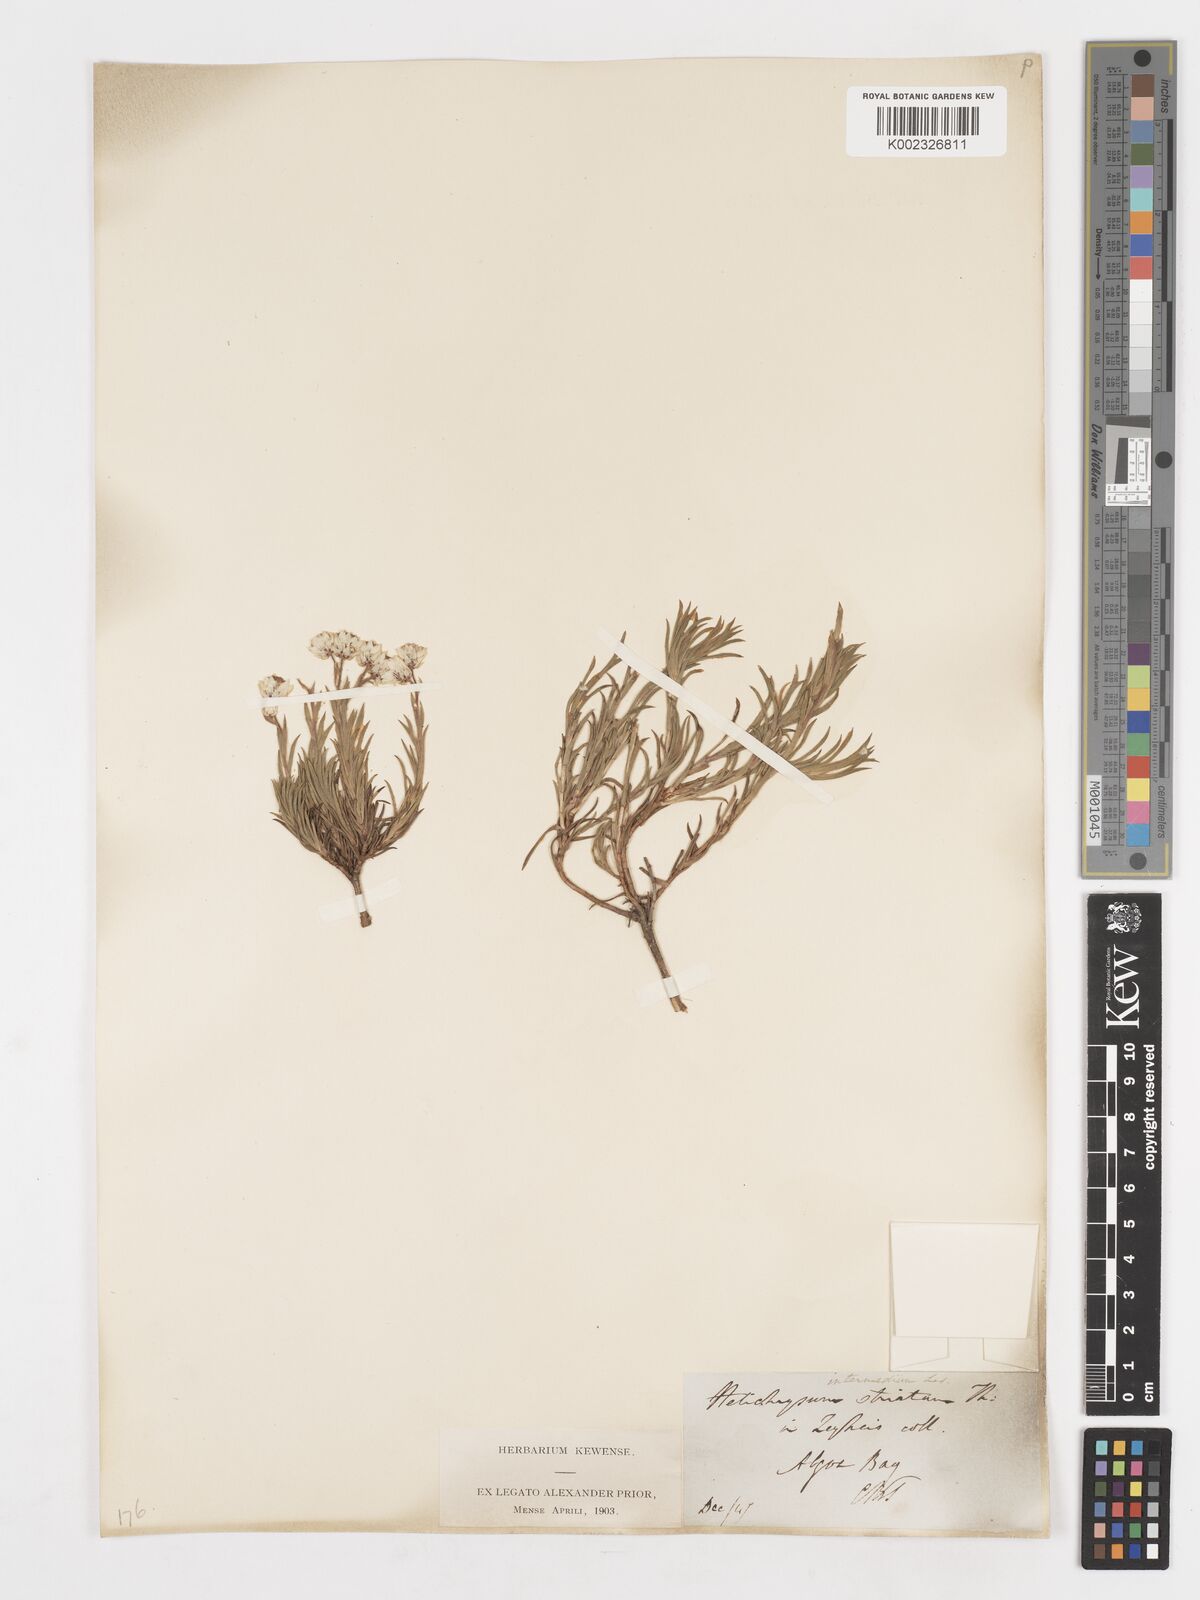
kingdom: Plantae
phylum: Tracheophyta
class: Magnoliopsida
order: Asterales
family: Asteraceae
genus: Achyranthemum
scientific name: Achyranthemum striatum
